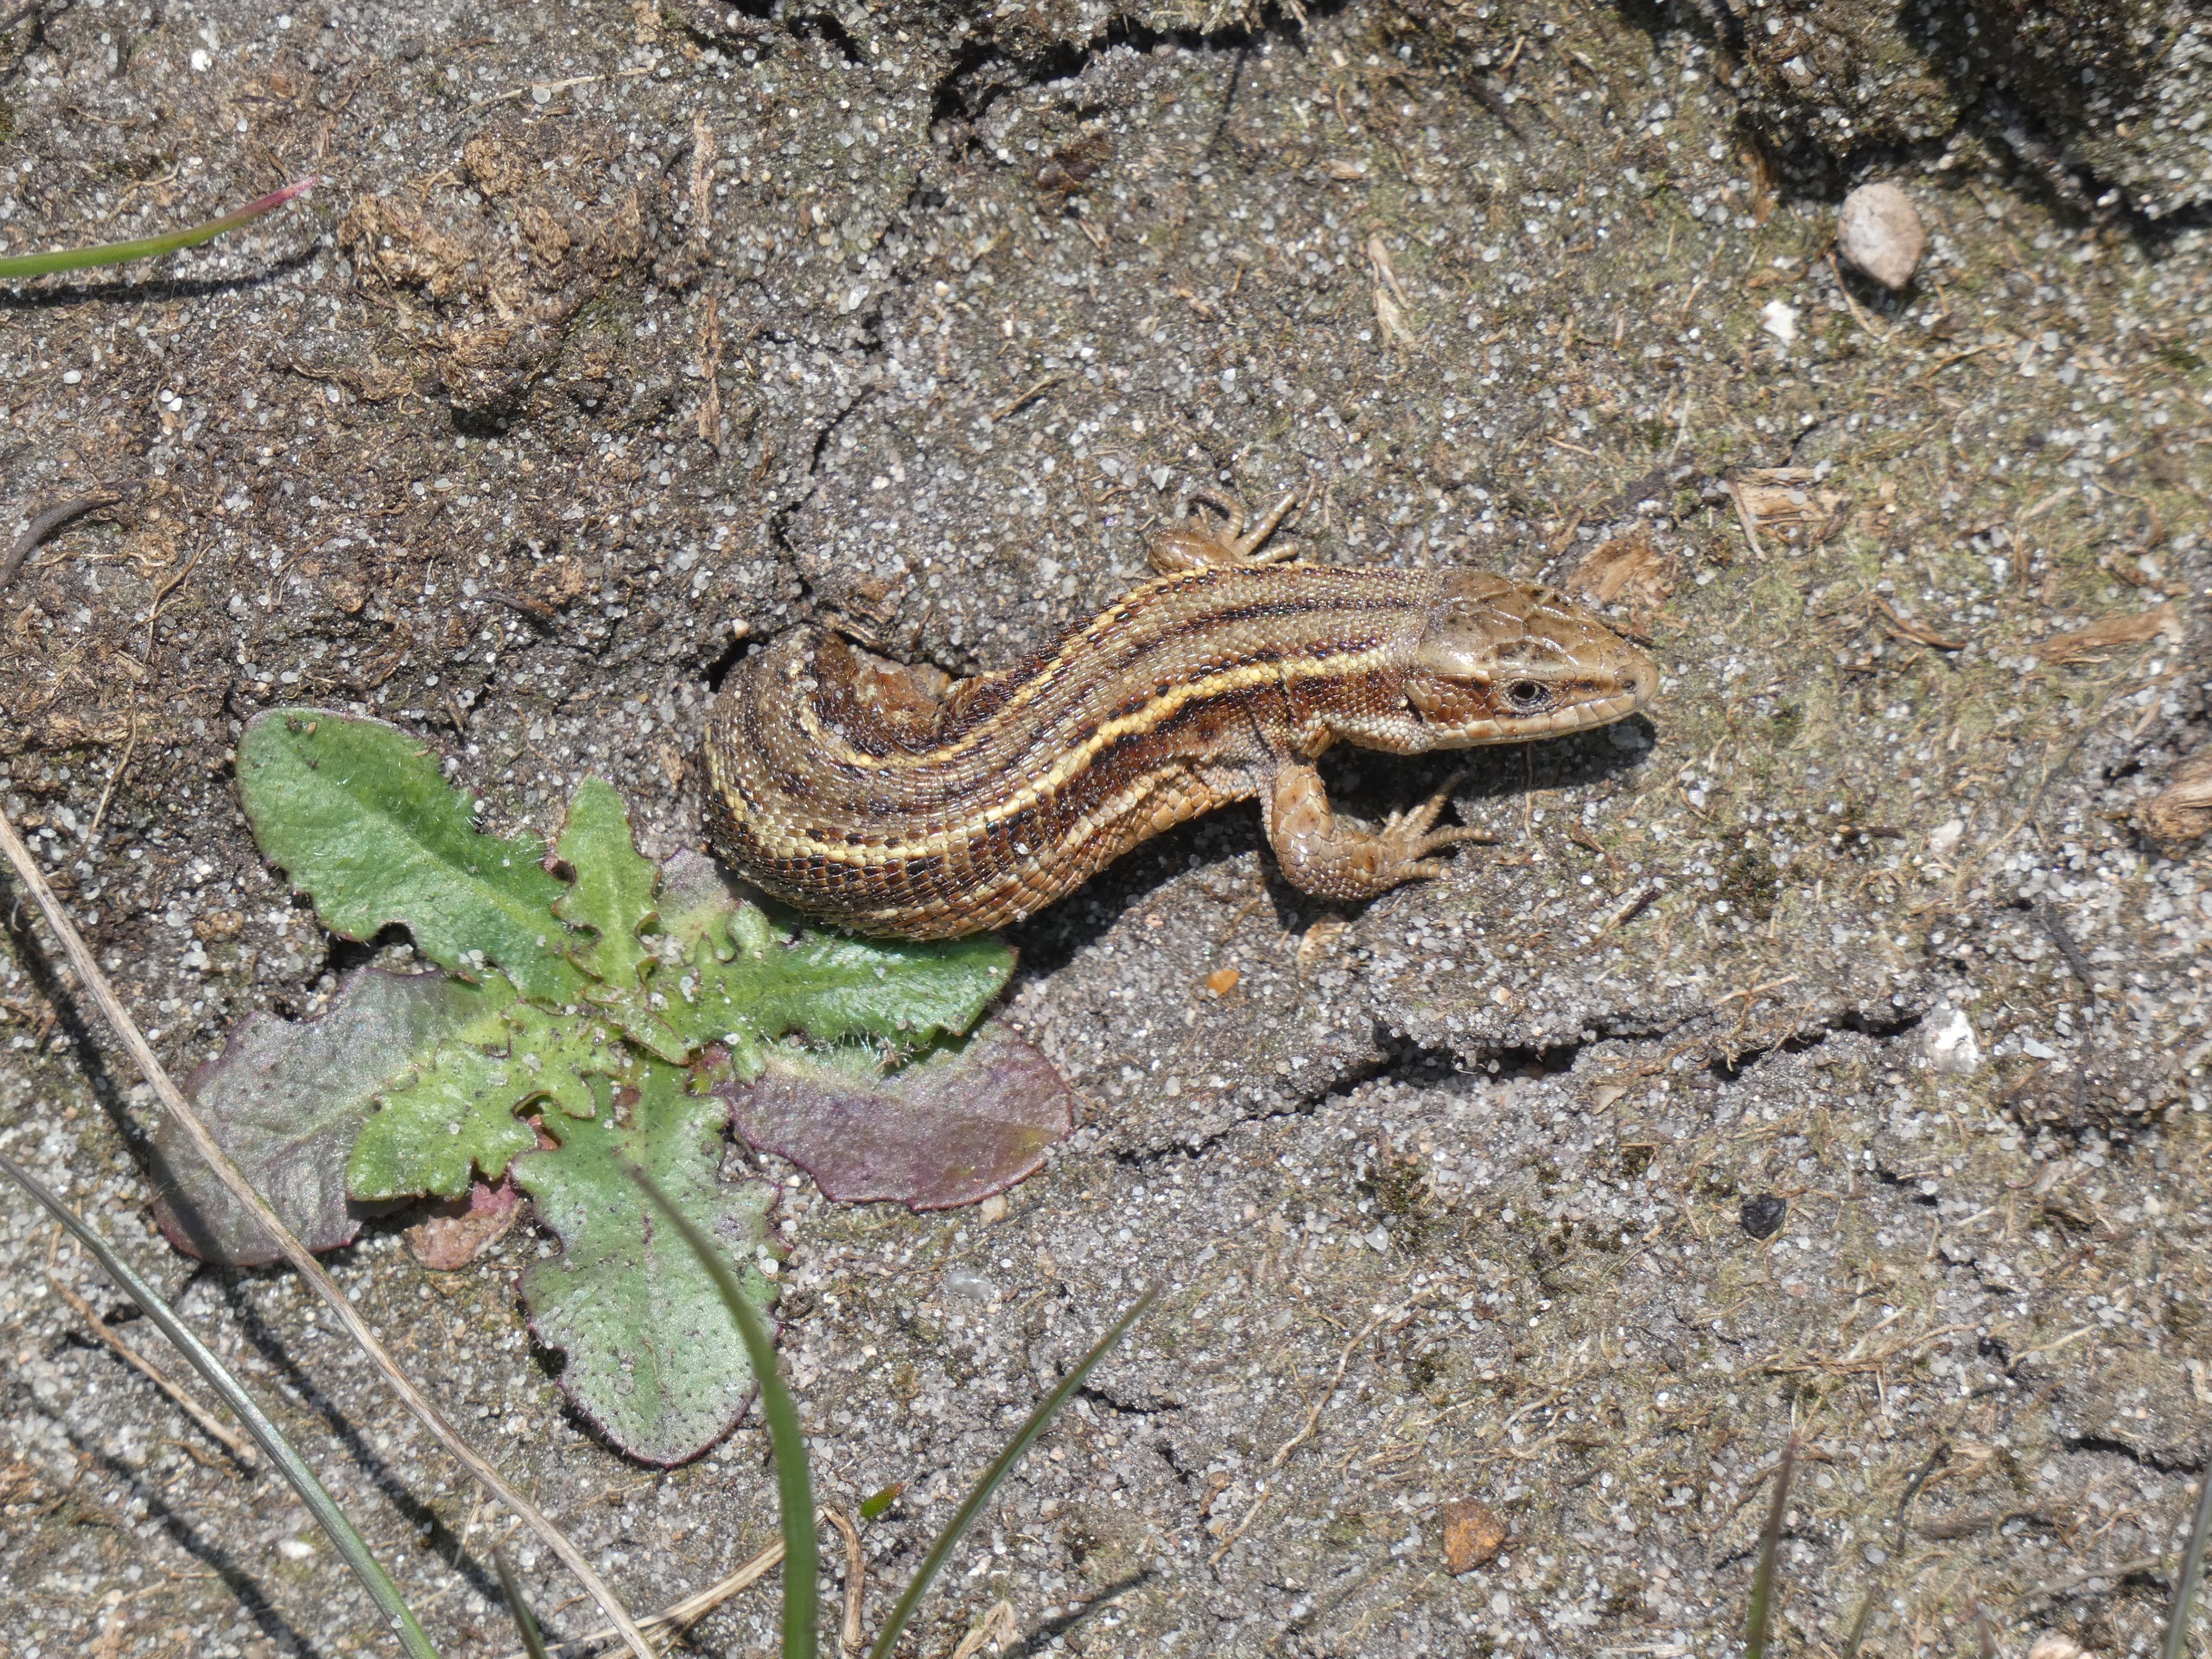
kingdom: Animalia
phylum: Chordata
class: Squamata
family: Lacertidae
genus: Zootoca
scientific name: Zootoca vivipara
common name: Skovfirben
